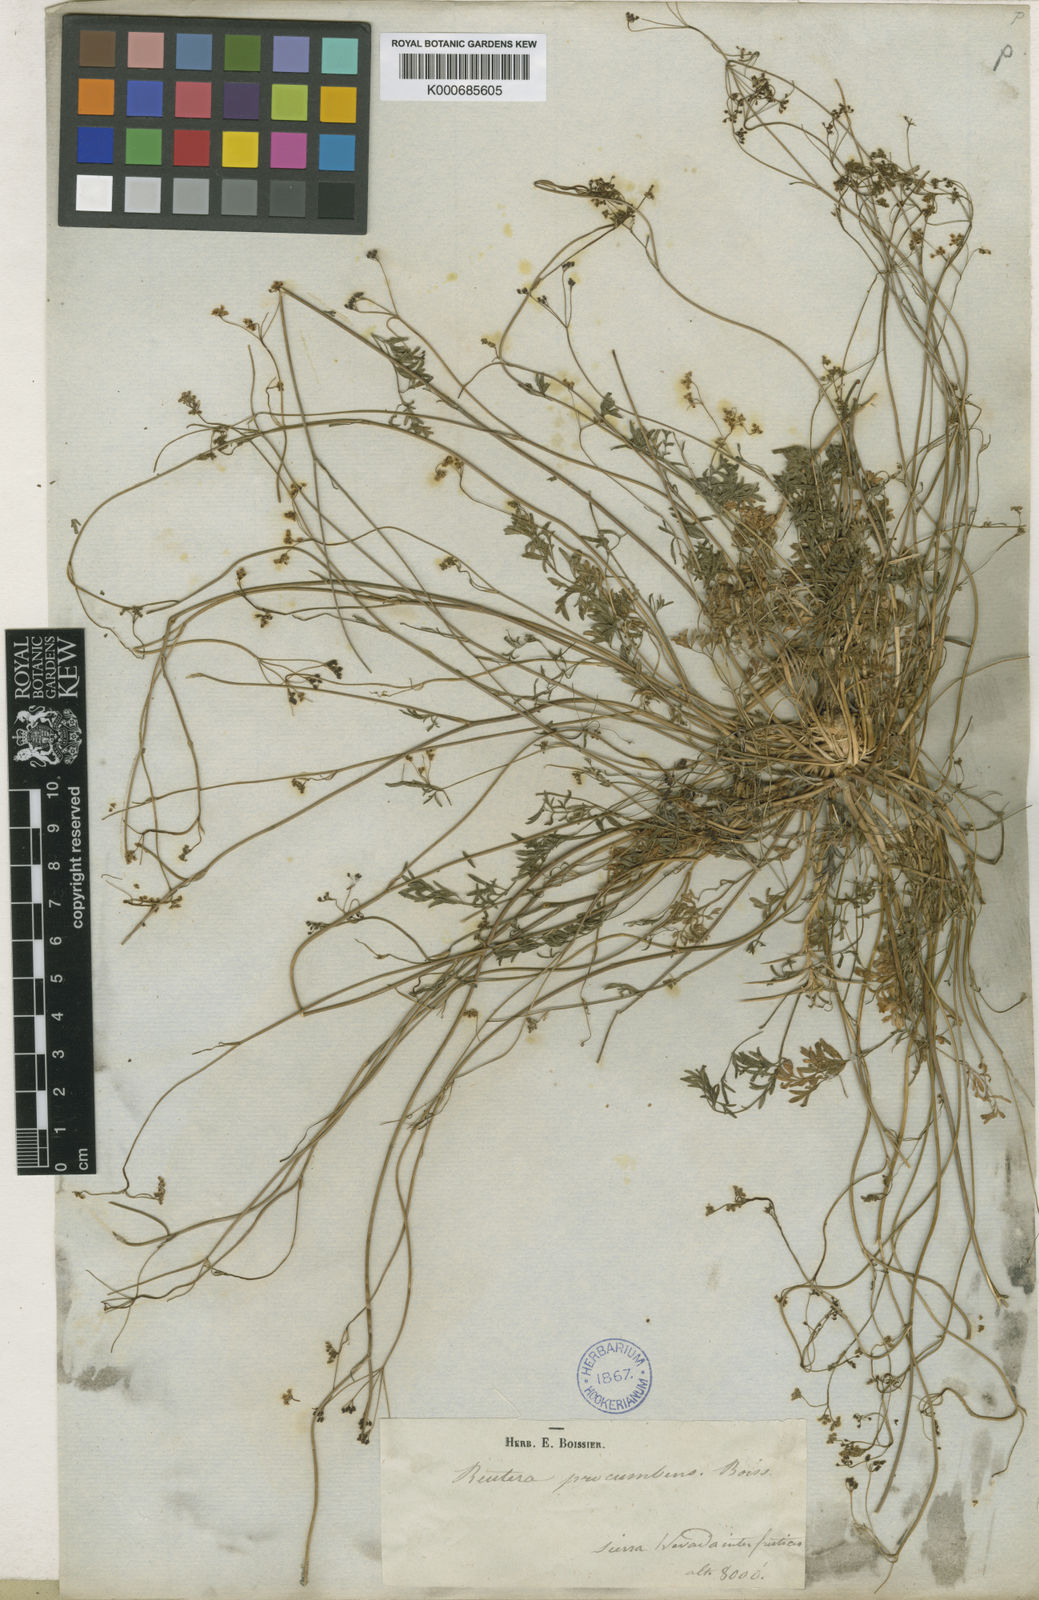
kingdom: Plantae
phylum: Tracheophyta
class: Magnoliopsida
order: Apiales
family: Apiaceae
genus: Pimpinella
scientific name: Pimpinella
